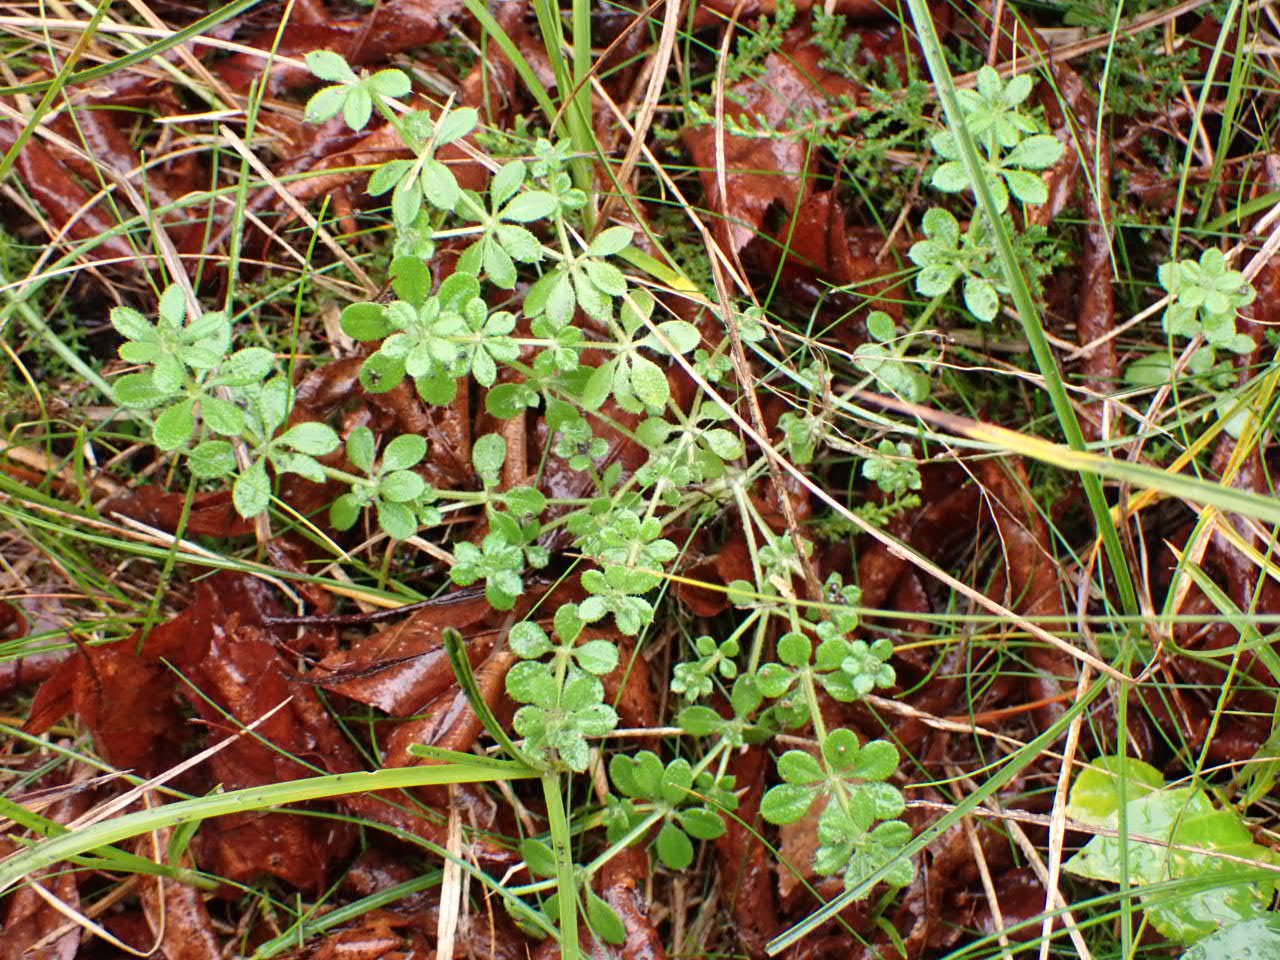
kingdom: Plantae
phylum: Tracheophyta
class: Magnoliopsida
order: Gentianales
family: Rubiaceae
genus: Galium
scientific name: Galium aparine
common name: Burre-snerre
